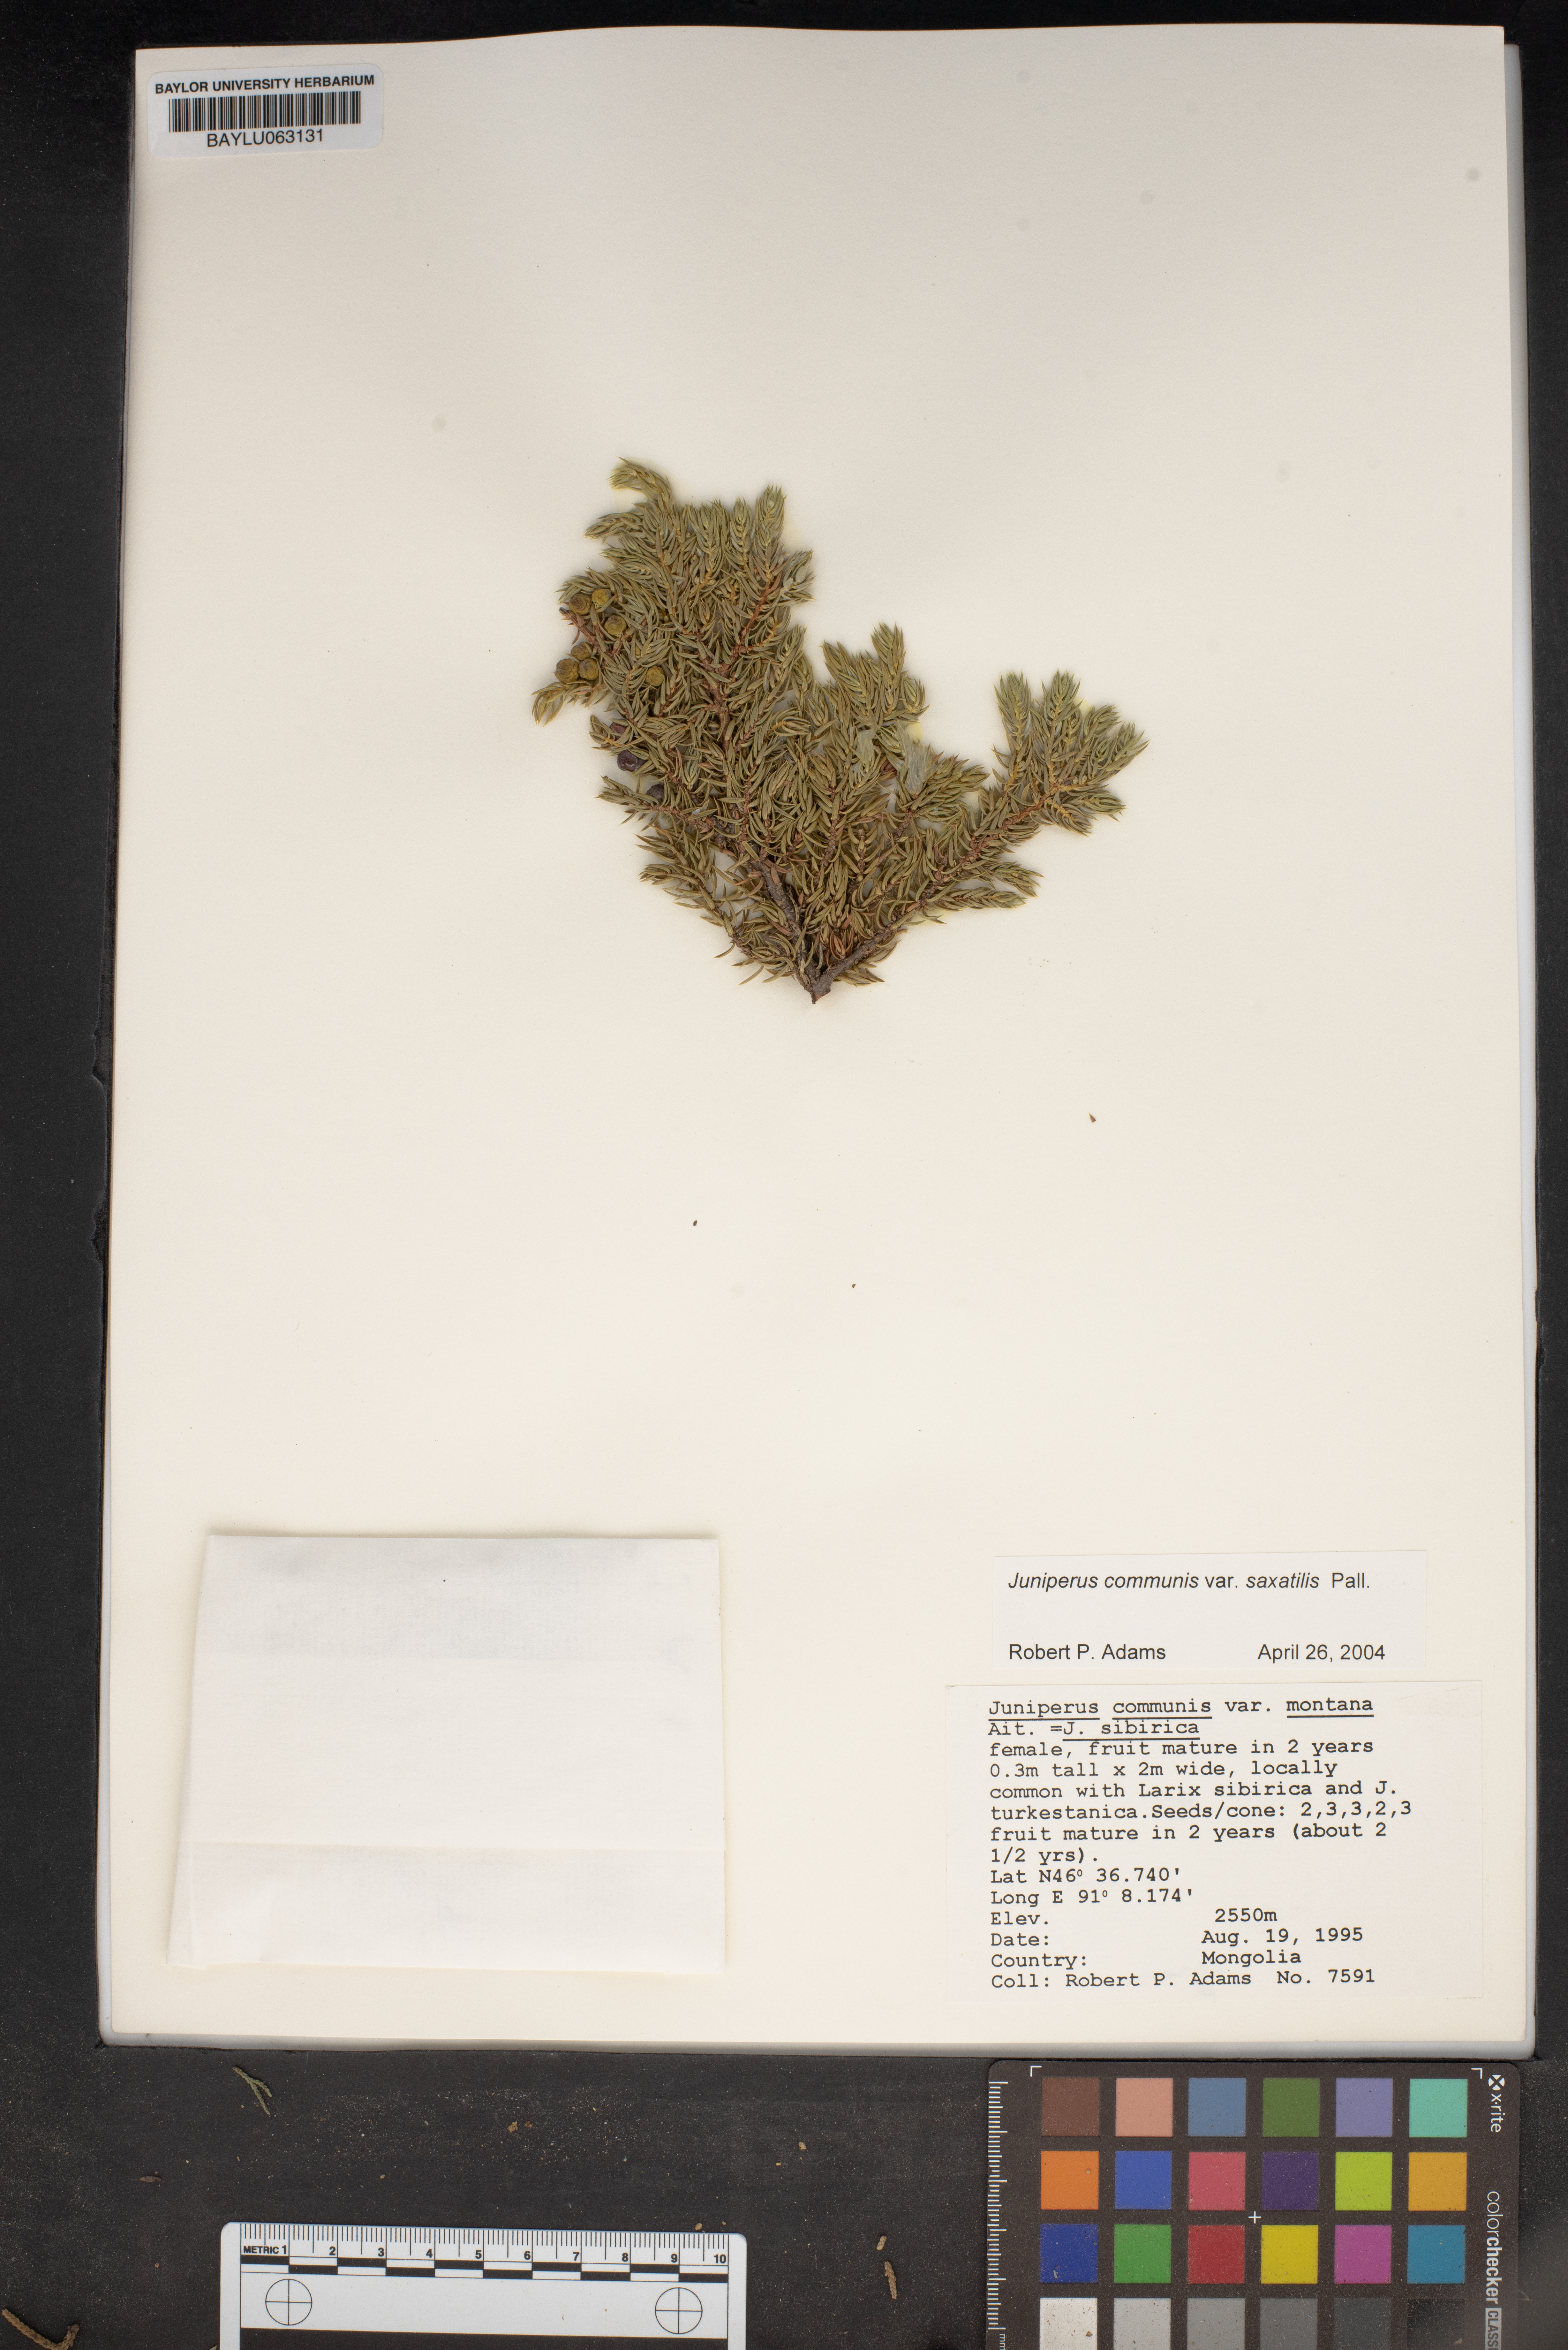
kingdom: Plantae
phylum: Tracheophyta
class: Pinopsida
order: Pinales
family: Cupressaceae
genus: Juniperus
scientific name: Juniperus communis
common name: Common juniper
